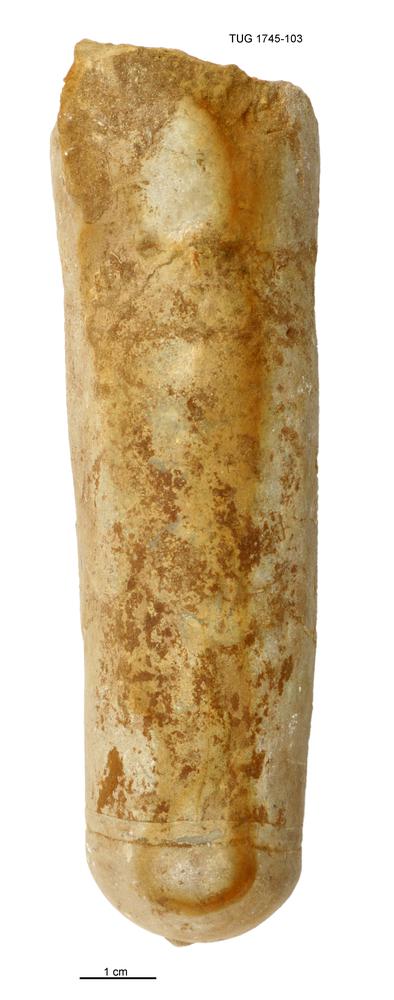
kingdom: Animalia
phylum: Mollusca
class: Cephalopoda
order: Orthocerida
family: Orthoceratidae
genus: Orthoceras
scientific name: Orthoceras
